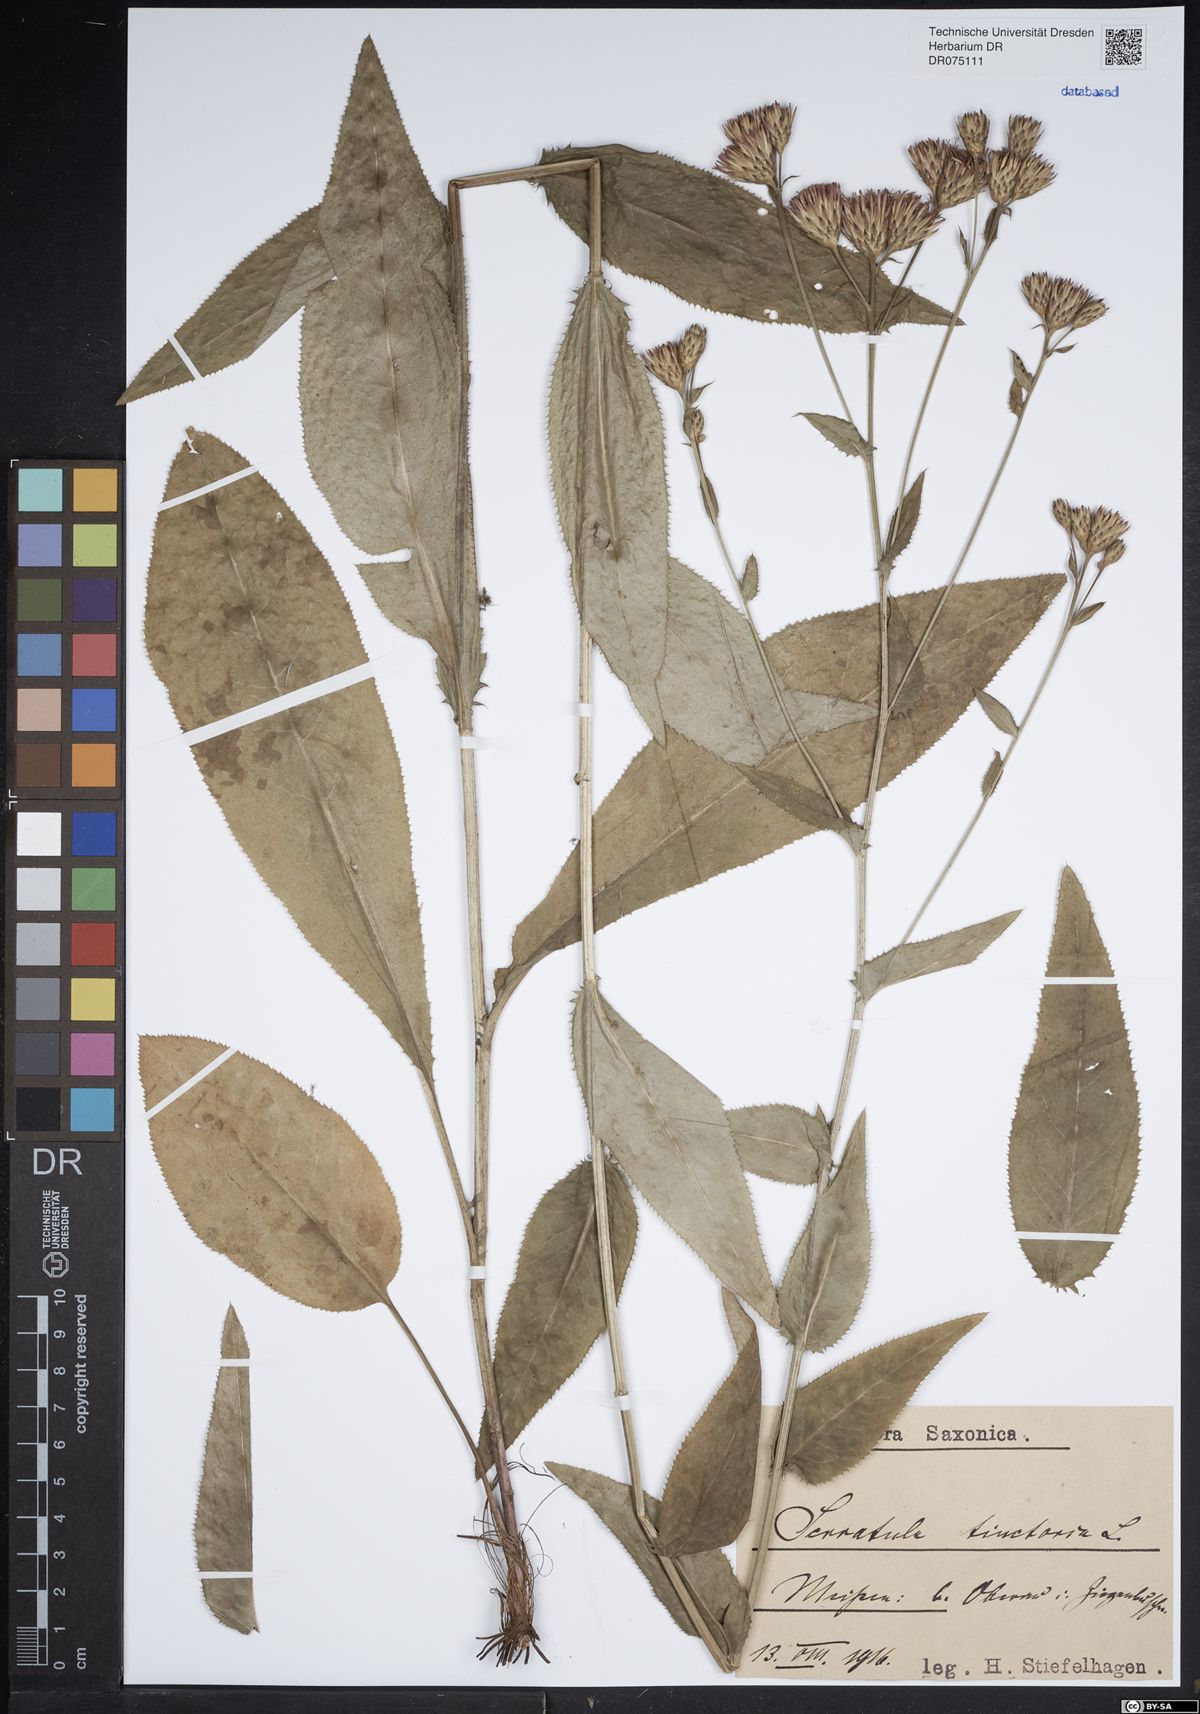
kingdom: Plantae
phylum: Tracheophyta
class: Magnoliopsida
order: Asterales
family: Asteraceae
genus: Serratula
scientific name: Serratula tinctoria
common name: Saw-wort
